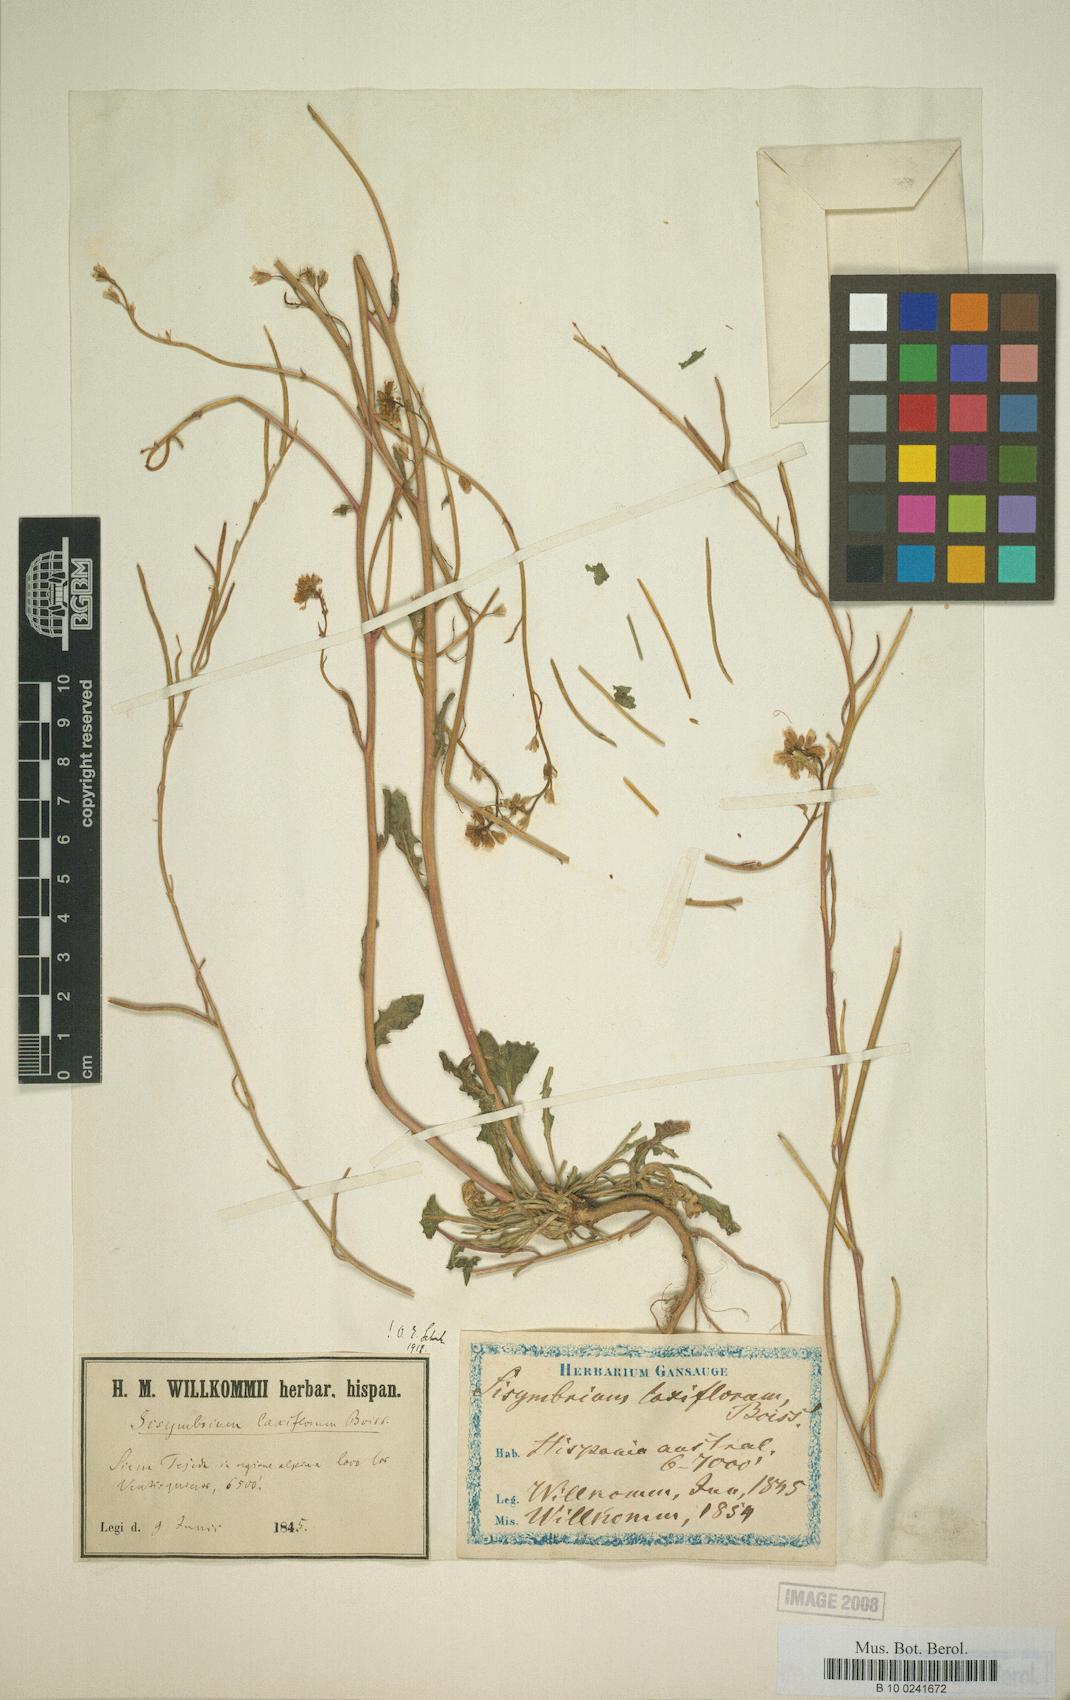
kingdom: Plantae
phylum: Tracheophyta
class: Magnoliopsida
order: Brassicales
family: Brassicaceae
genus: Sisymbrium
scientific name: Sisymbrium crassifolium
